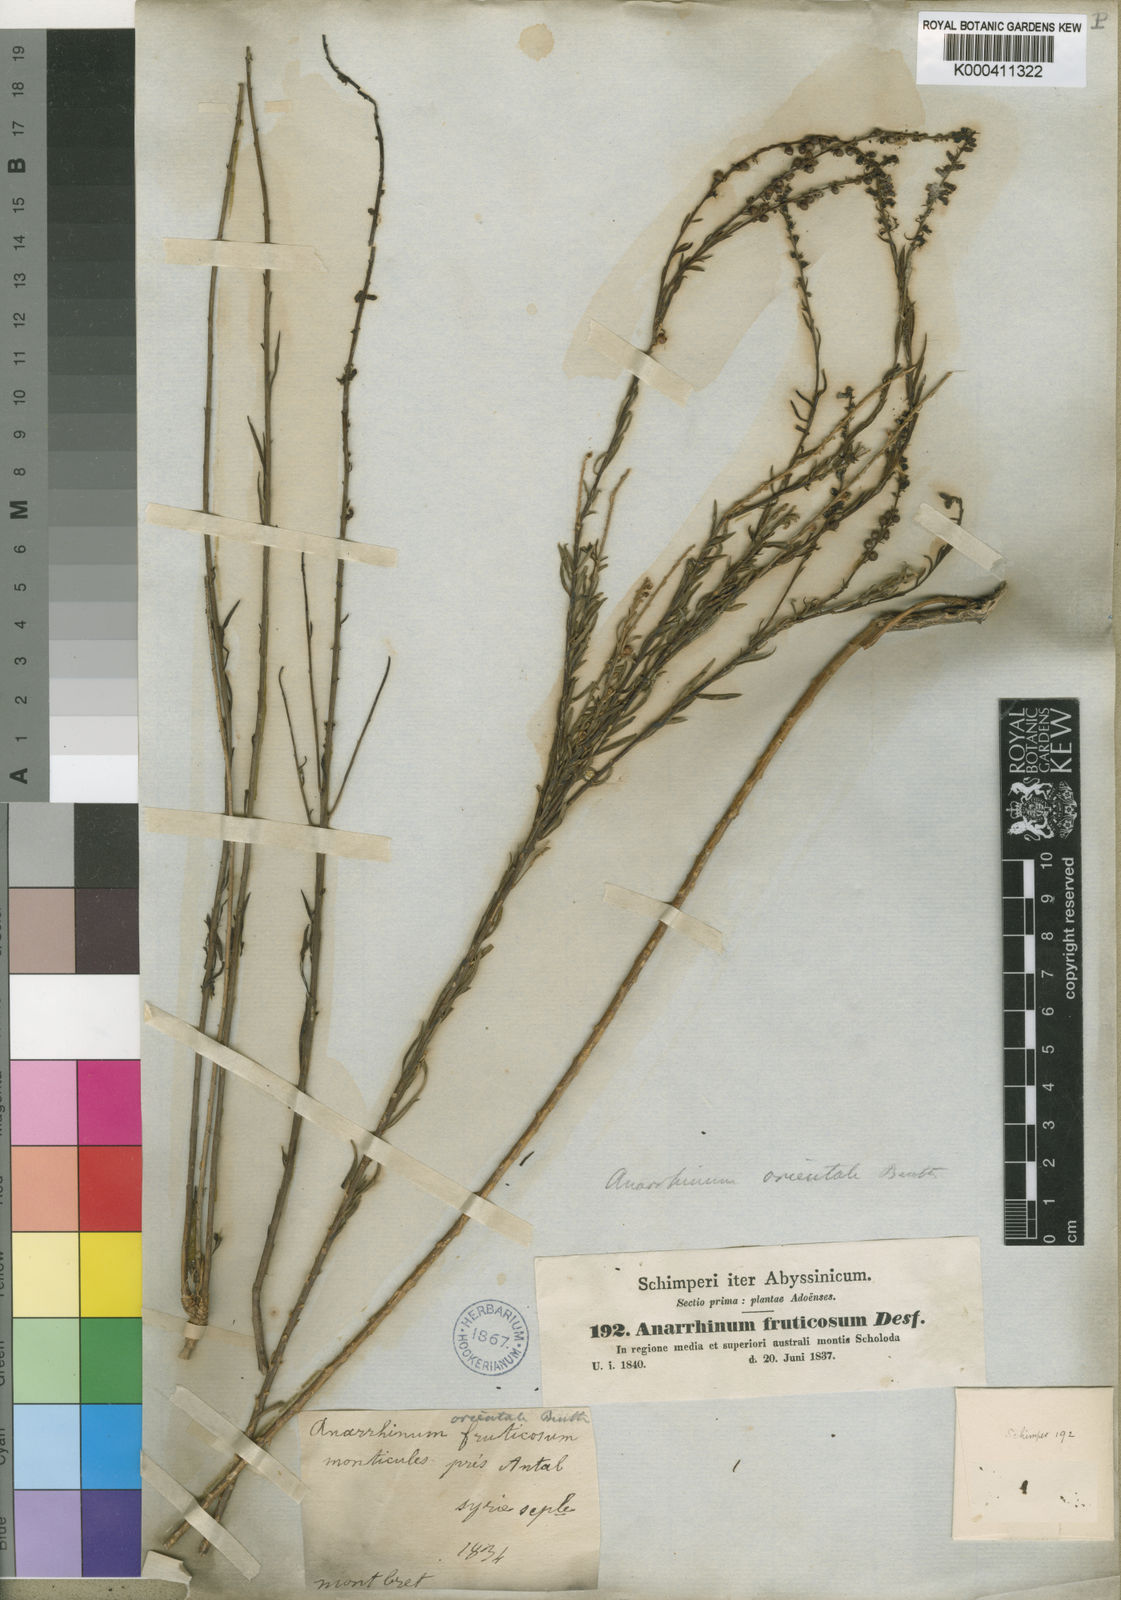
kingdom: Plantae
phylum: Tracheophyta
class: Magnoliopsida
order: Lamiales
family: Plantaginaceae
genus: Anarrhinum
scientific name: Anarrhinum fruticosum
